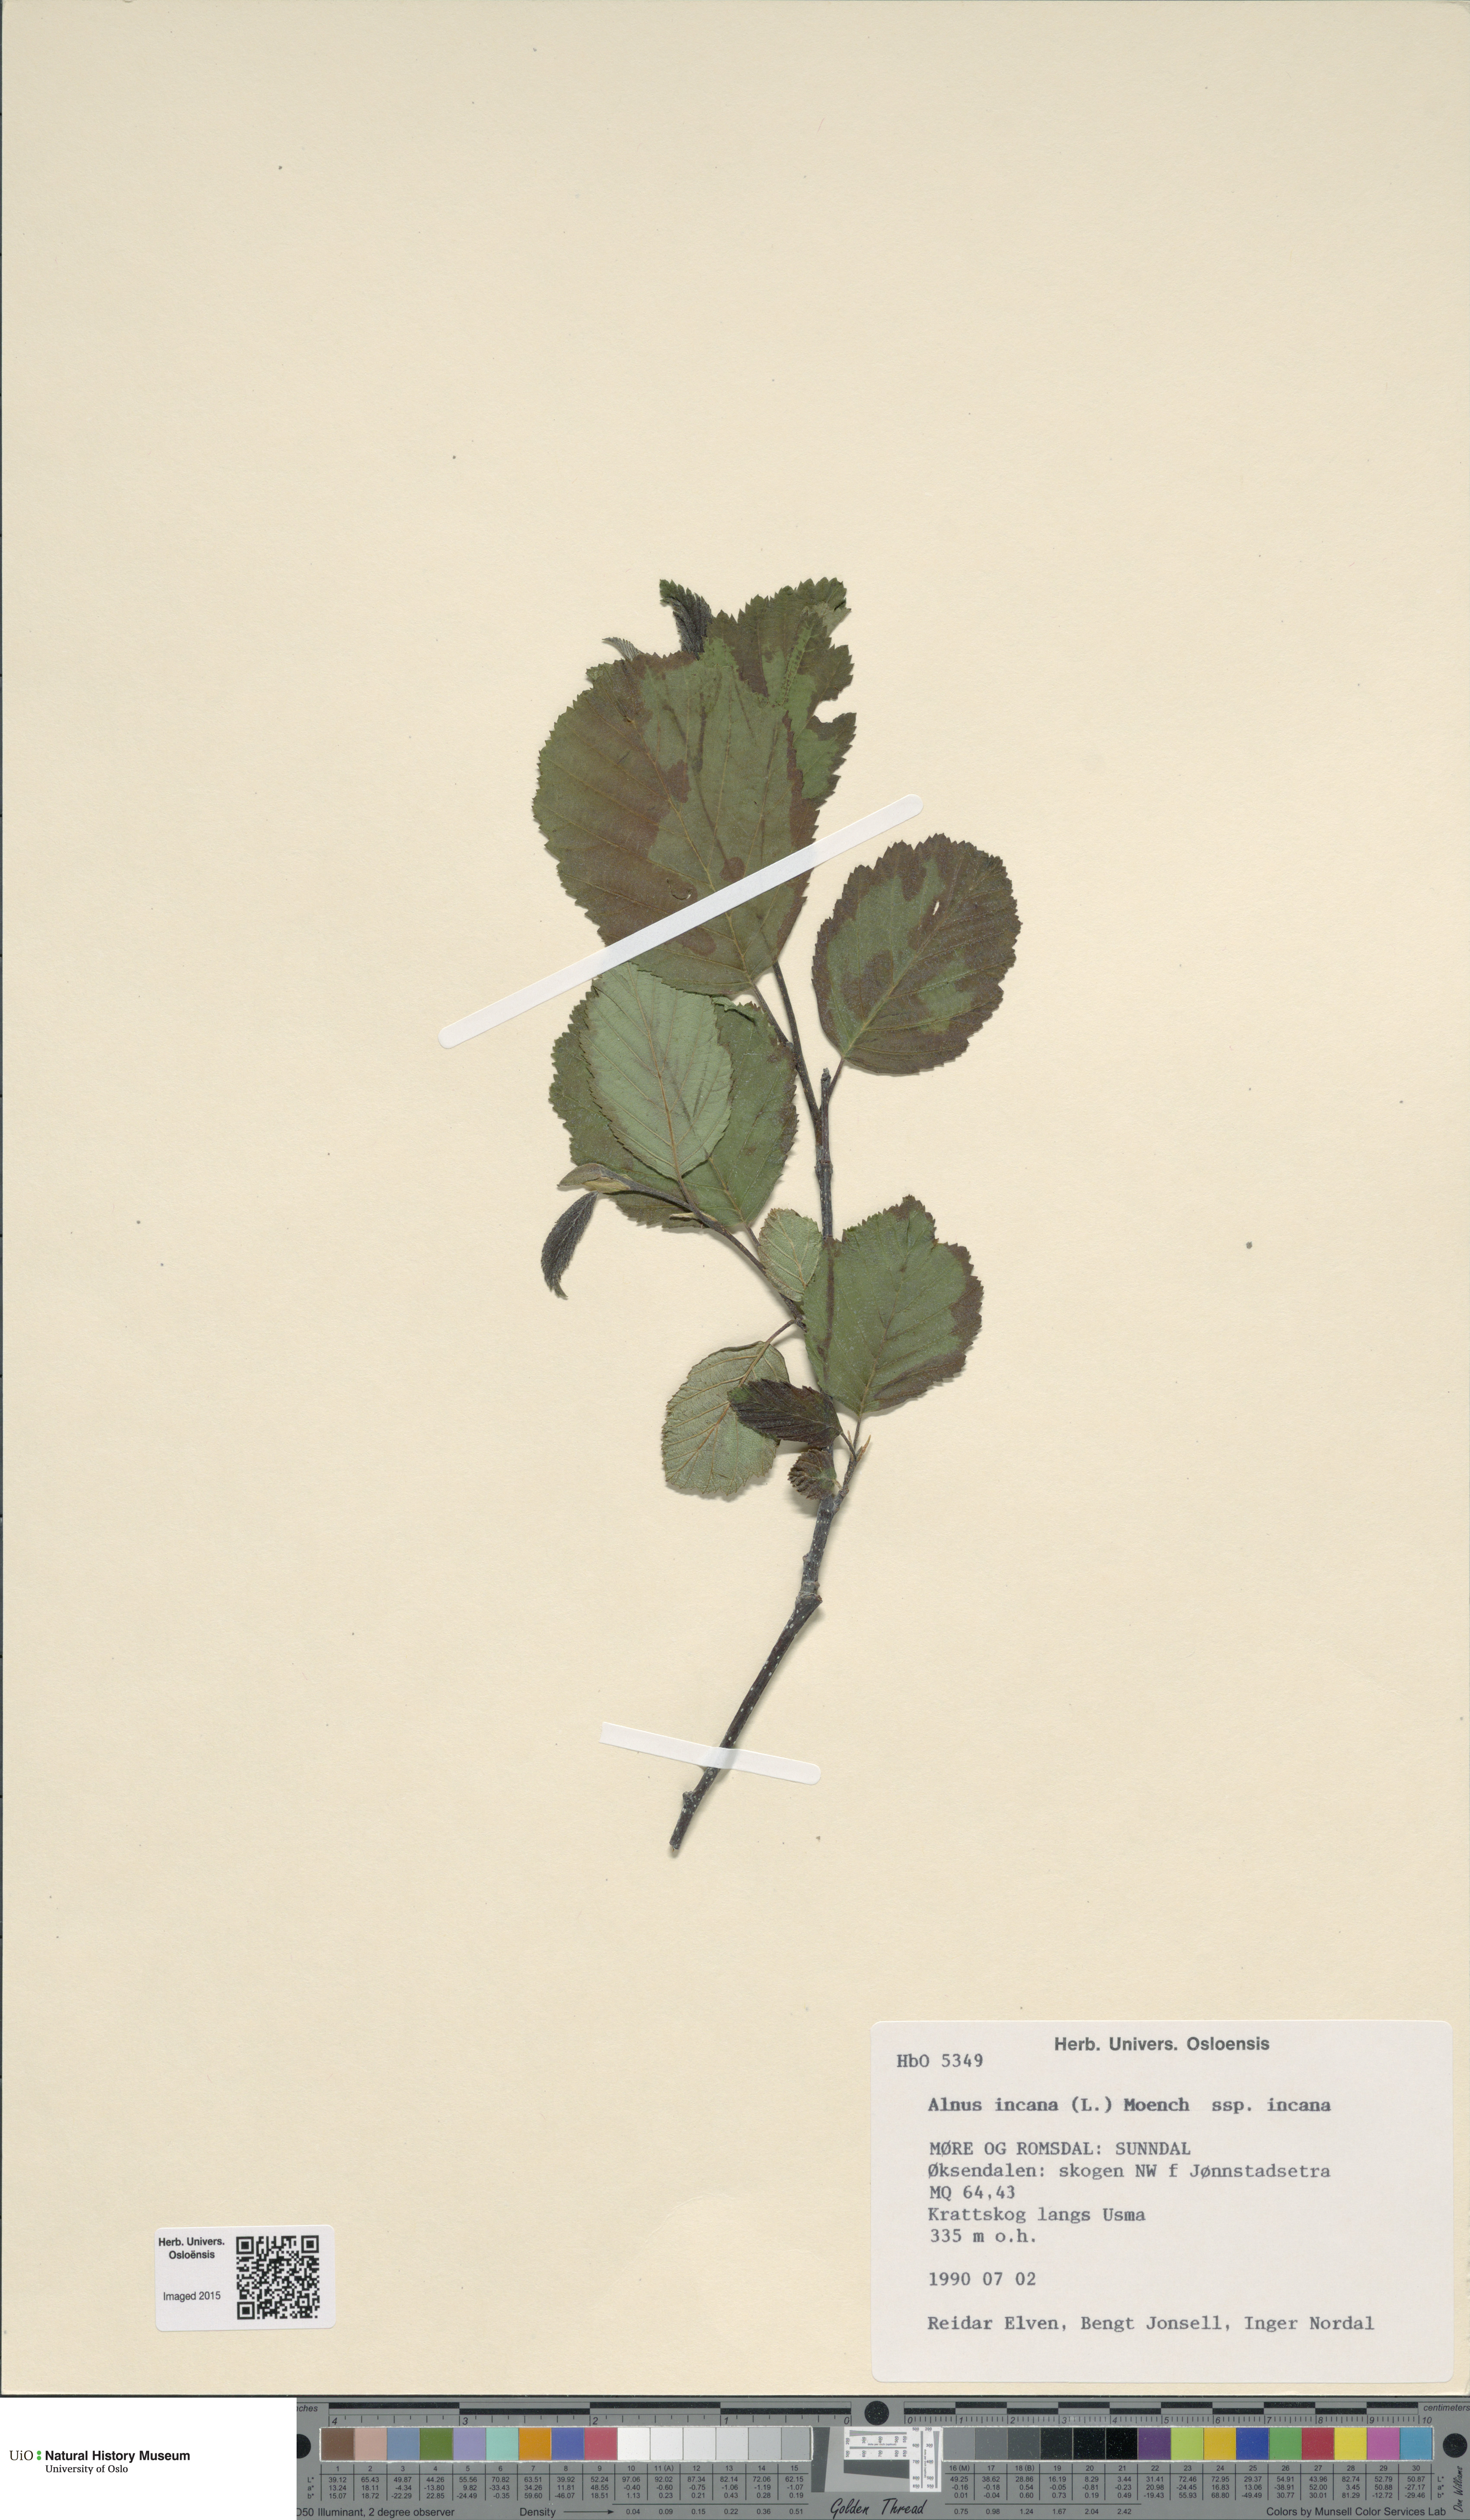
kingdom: Plantae
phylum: Tracheophyta
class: Magnoliopsida
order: Fagales
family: Betulaceae
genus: Alnus
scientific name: Alnus incana
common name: Grey alder
